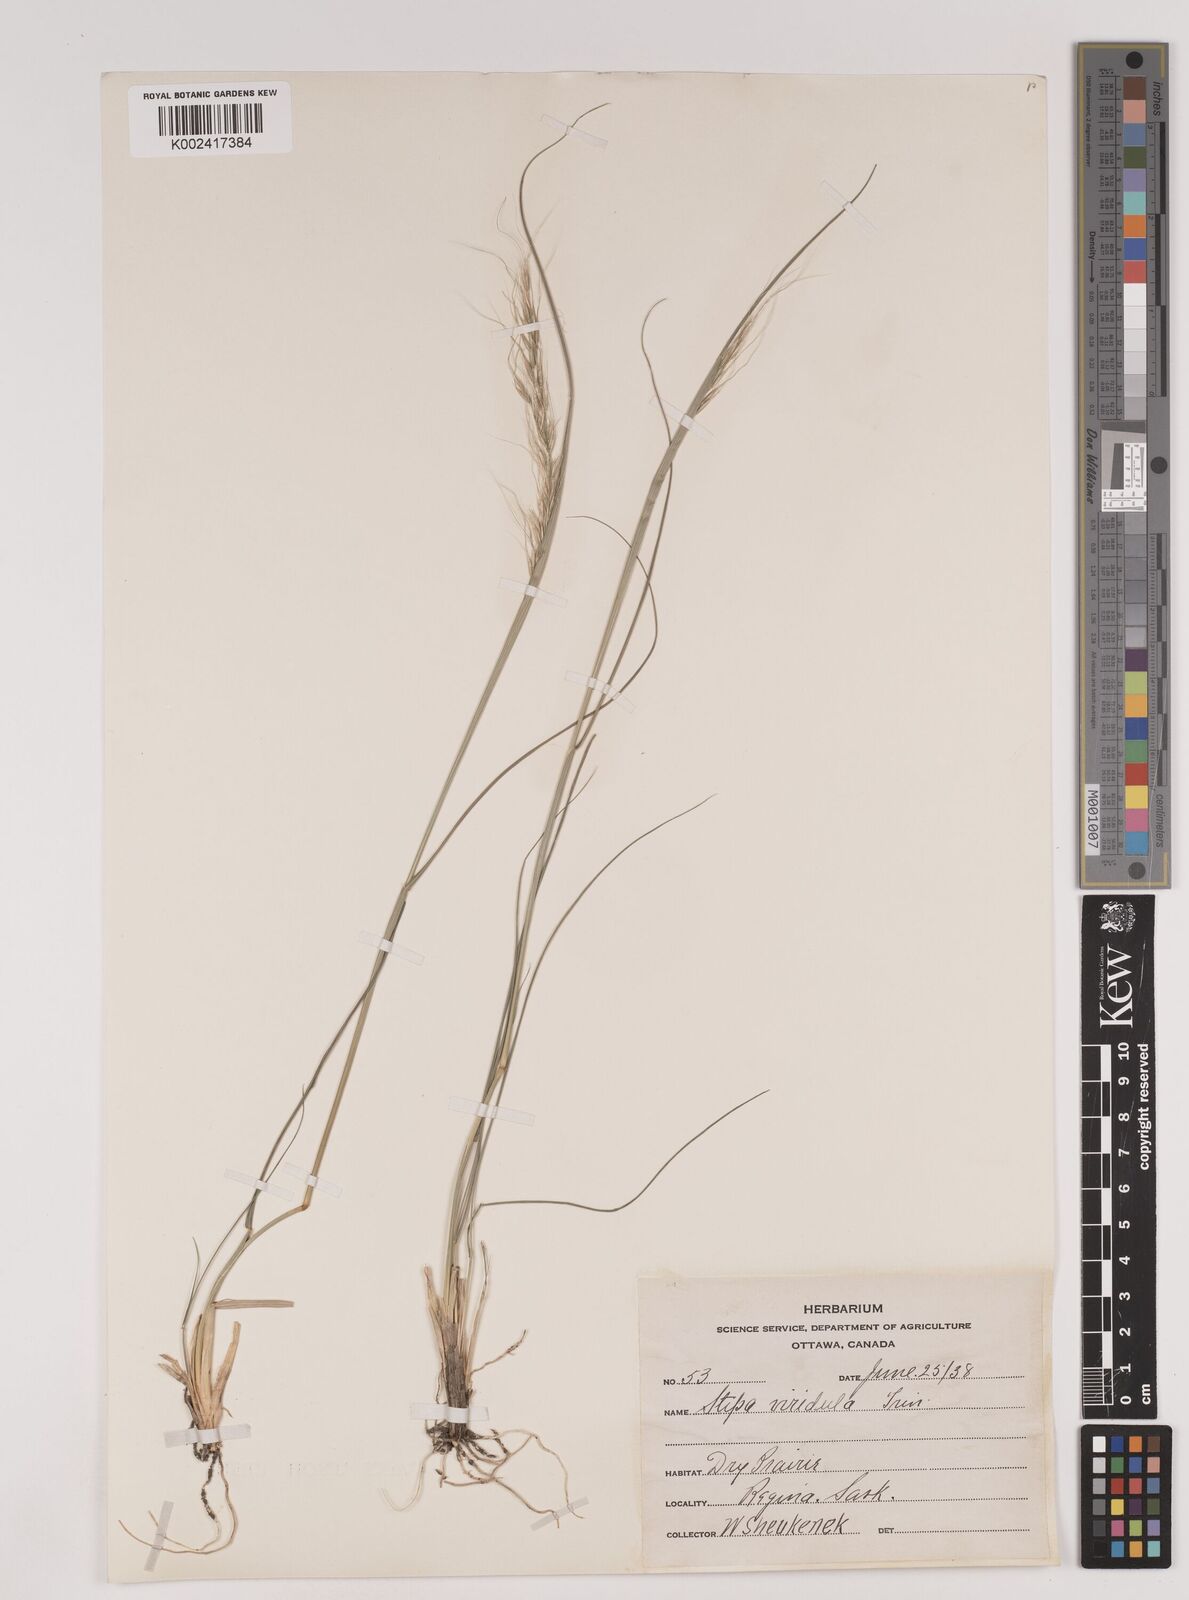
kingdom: Plantae
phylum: Tracheophyta
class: Liliopsida
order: Poales
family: Poaceae
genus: Nassella
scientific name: Nassella viridula
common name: Green needlegrass
